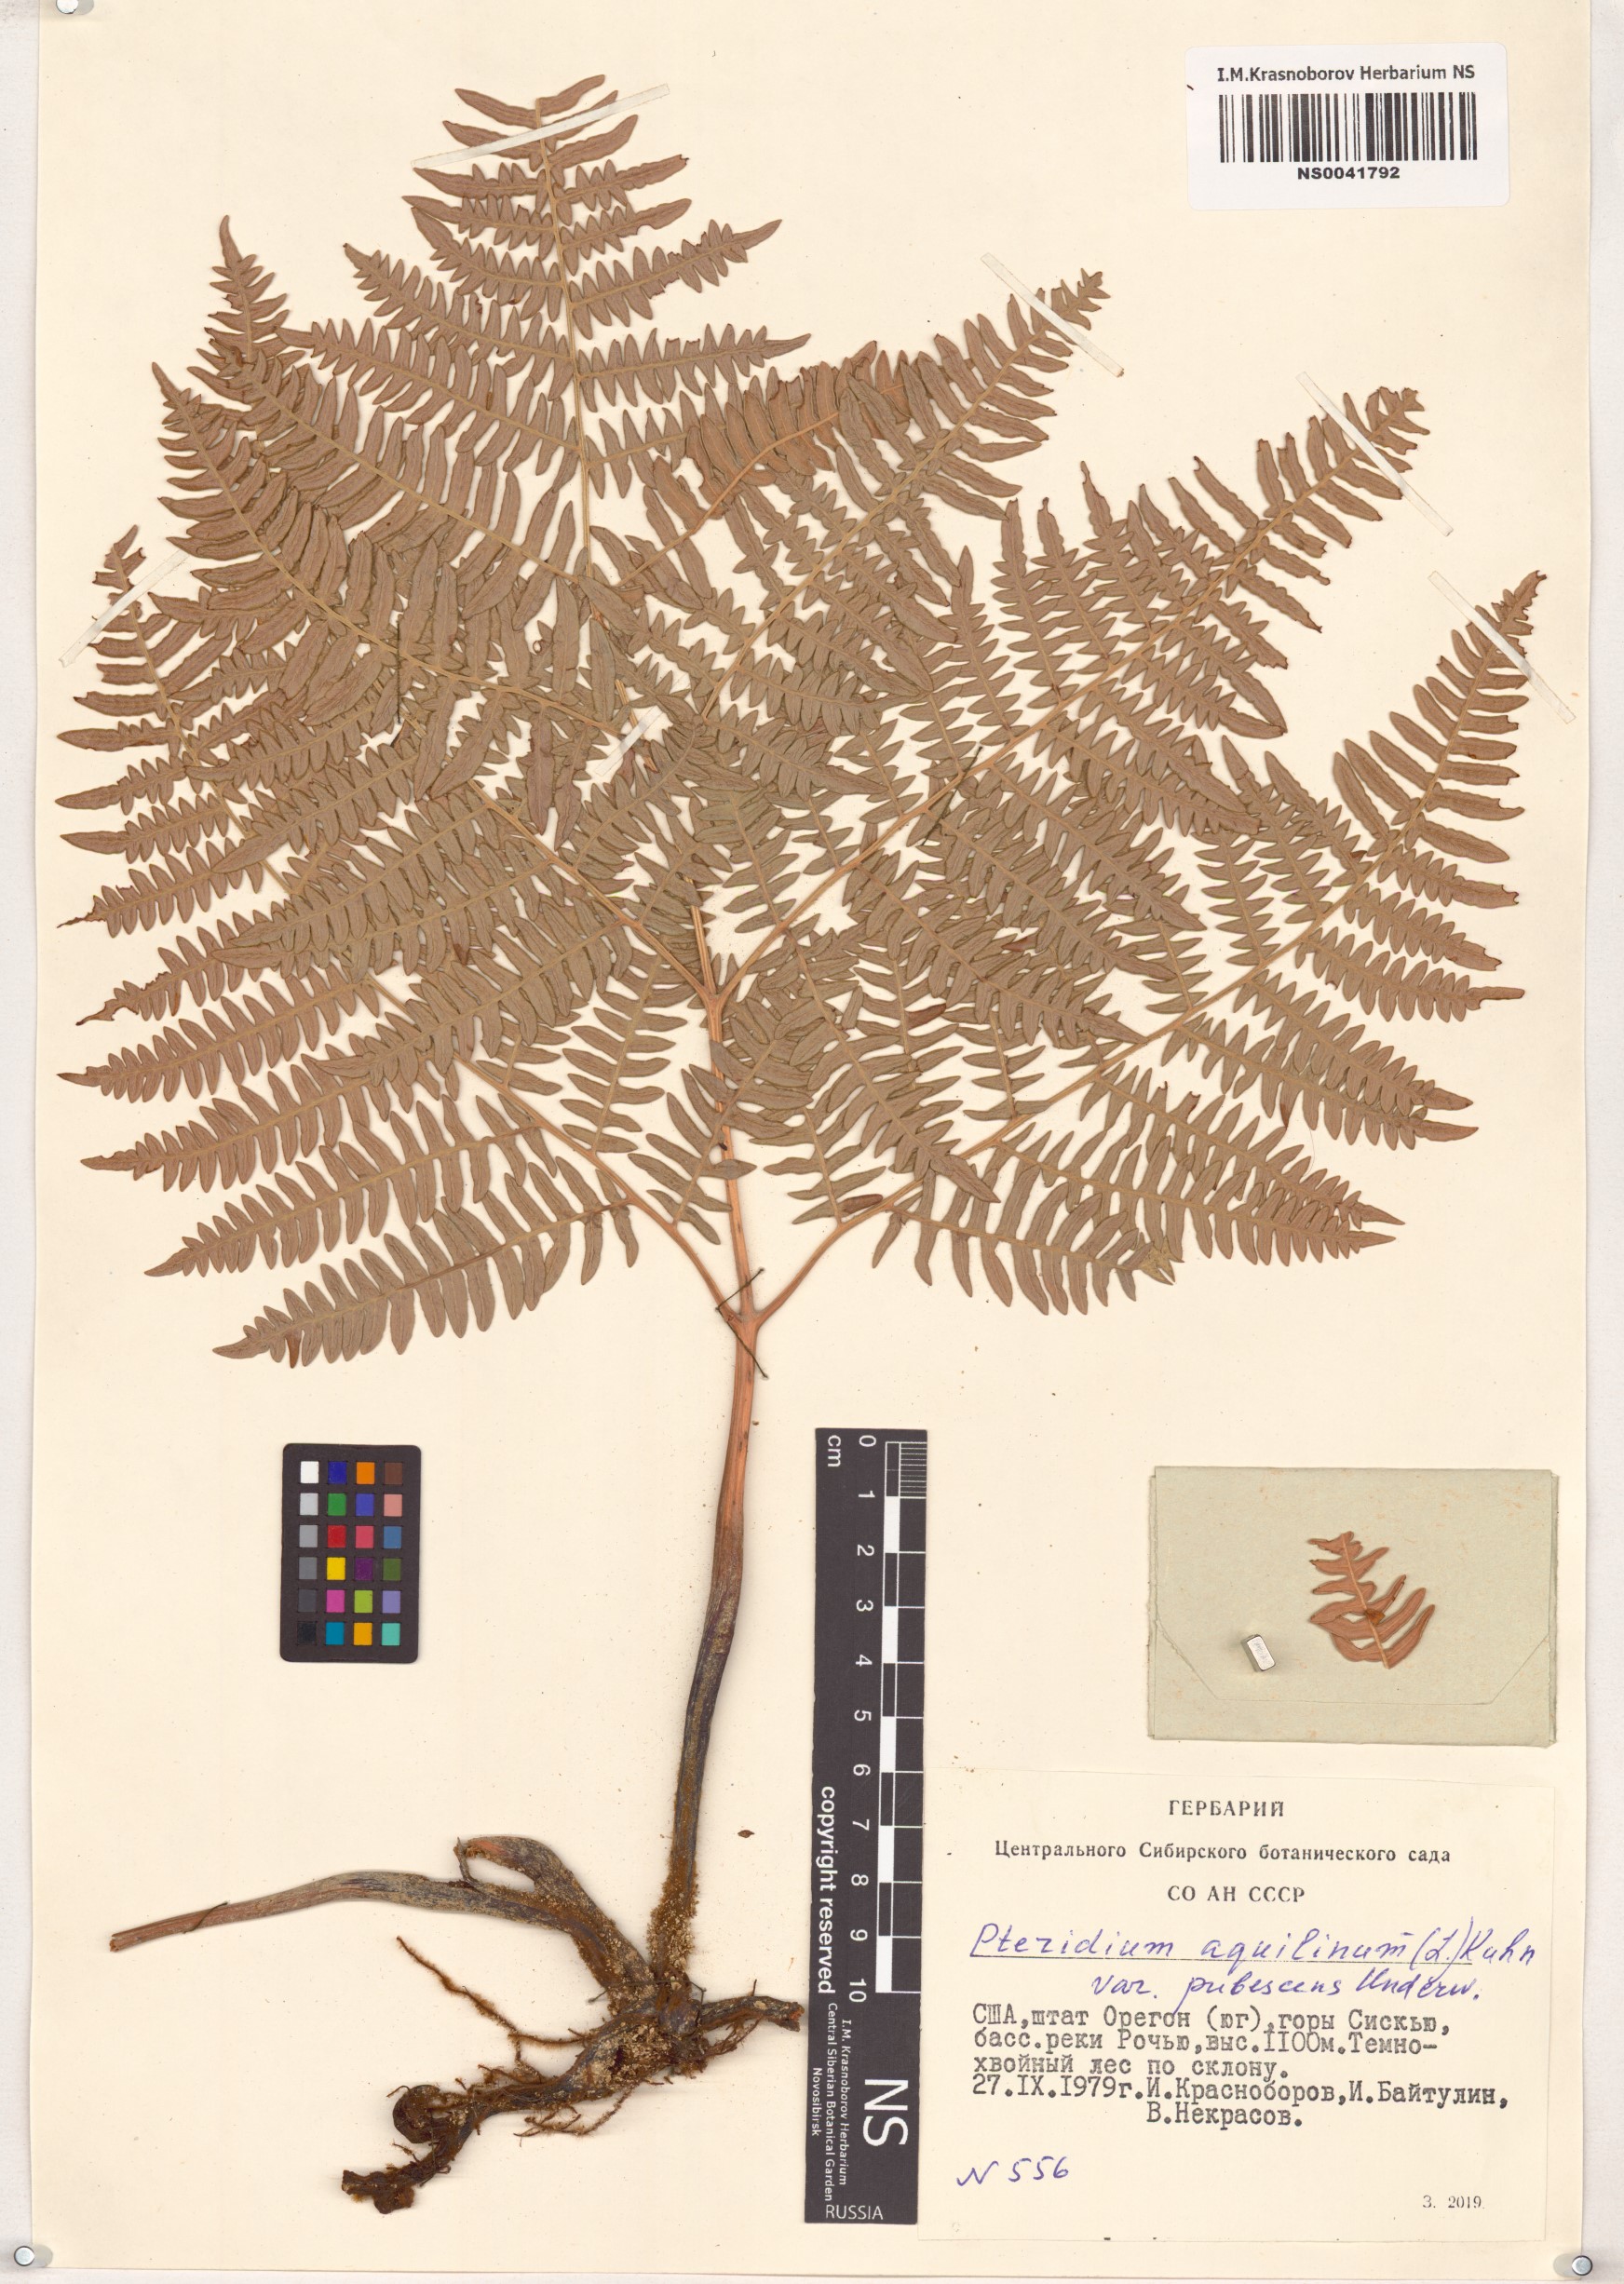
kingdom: Plantae
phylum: Tracheophyta
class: Polypodiopsida
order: Polypodiales
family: Dennstaedtiaceae
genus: Pteridium
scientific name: Pteridium aquilinum
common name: Bracken
